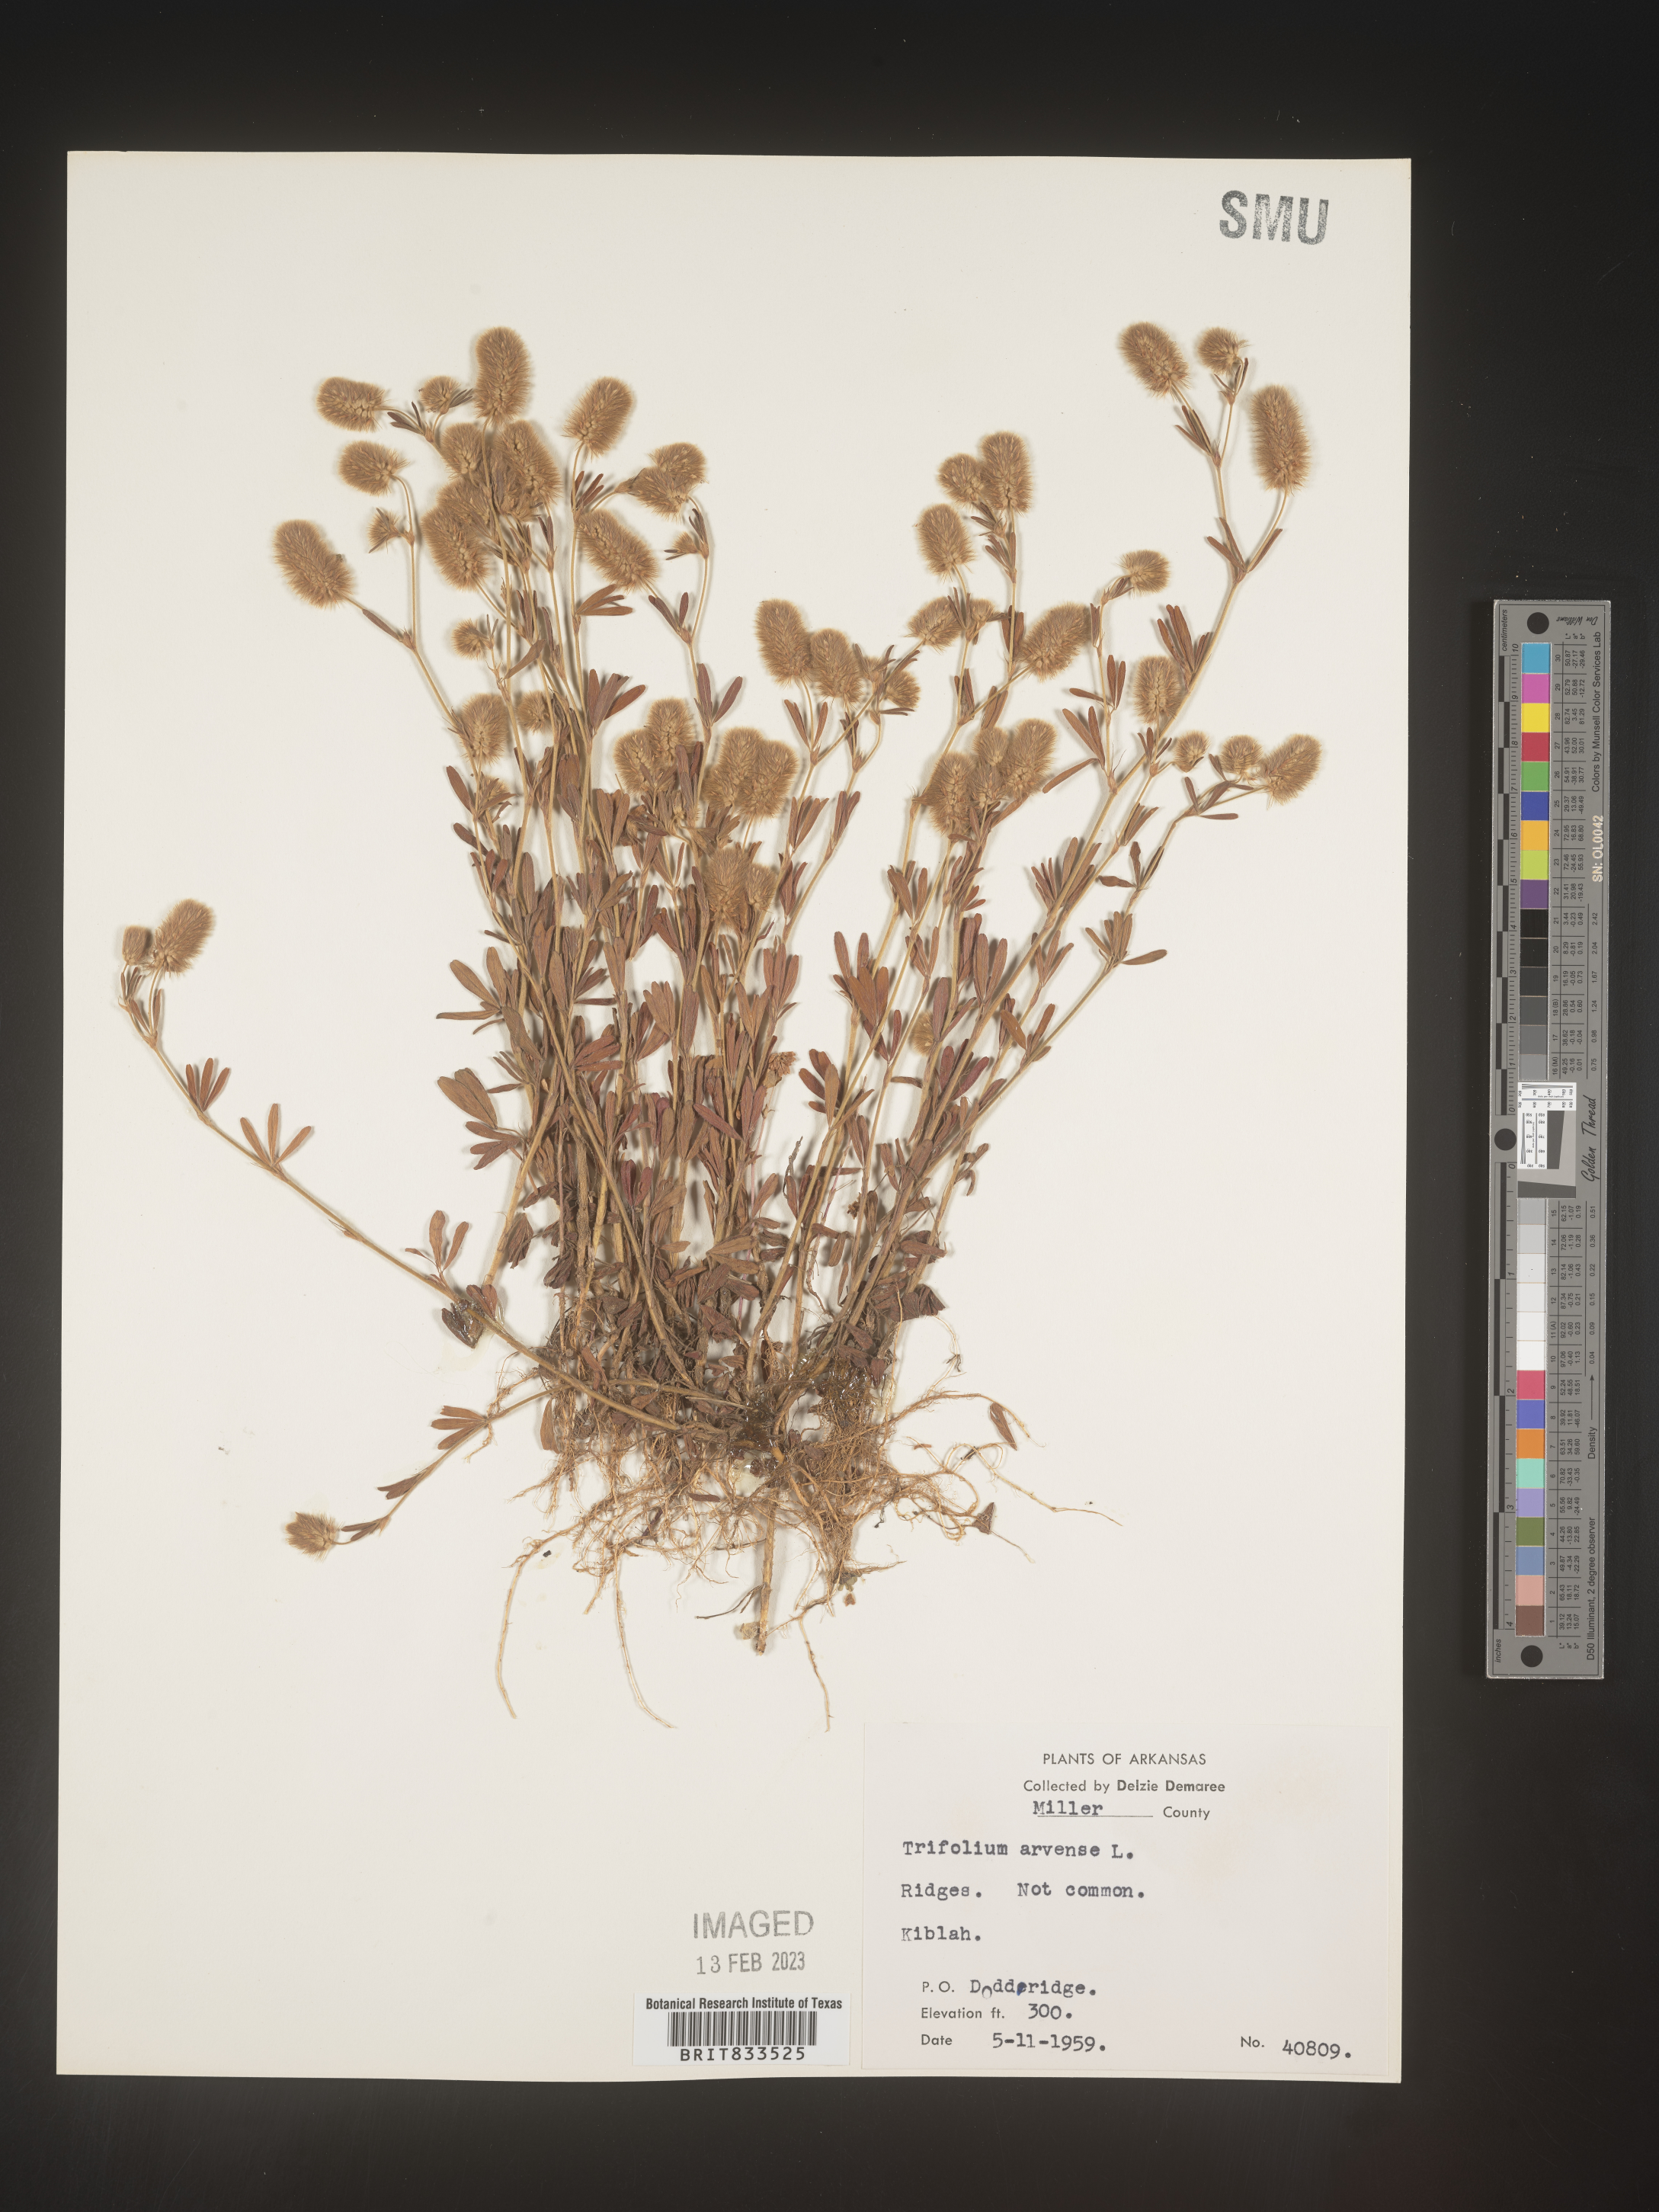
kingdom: Plantae
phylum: Tracheophyta
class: Magnoliopsida
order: Fabales
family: Fabaceae
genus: Trifolium
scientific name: Trifolium arvense
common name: Hare's-foot clover
